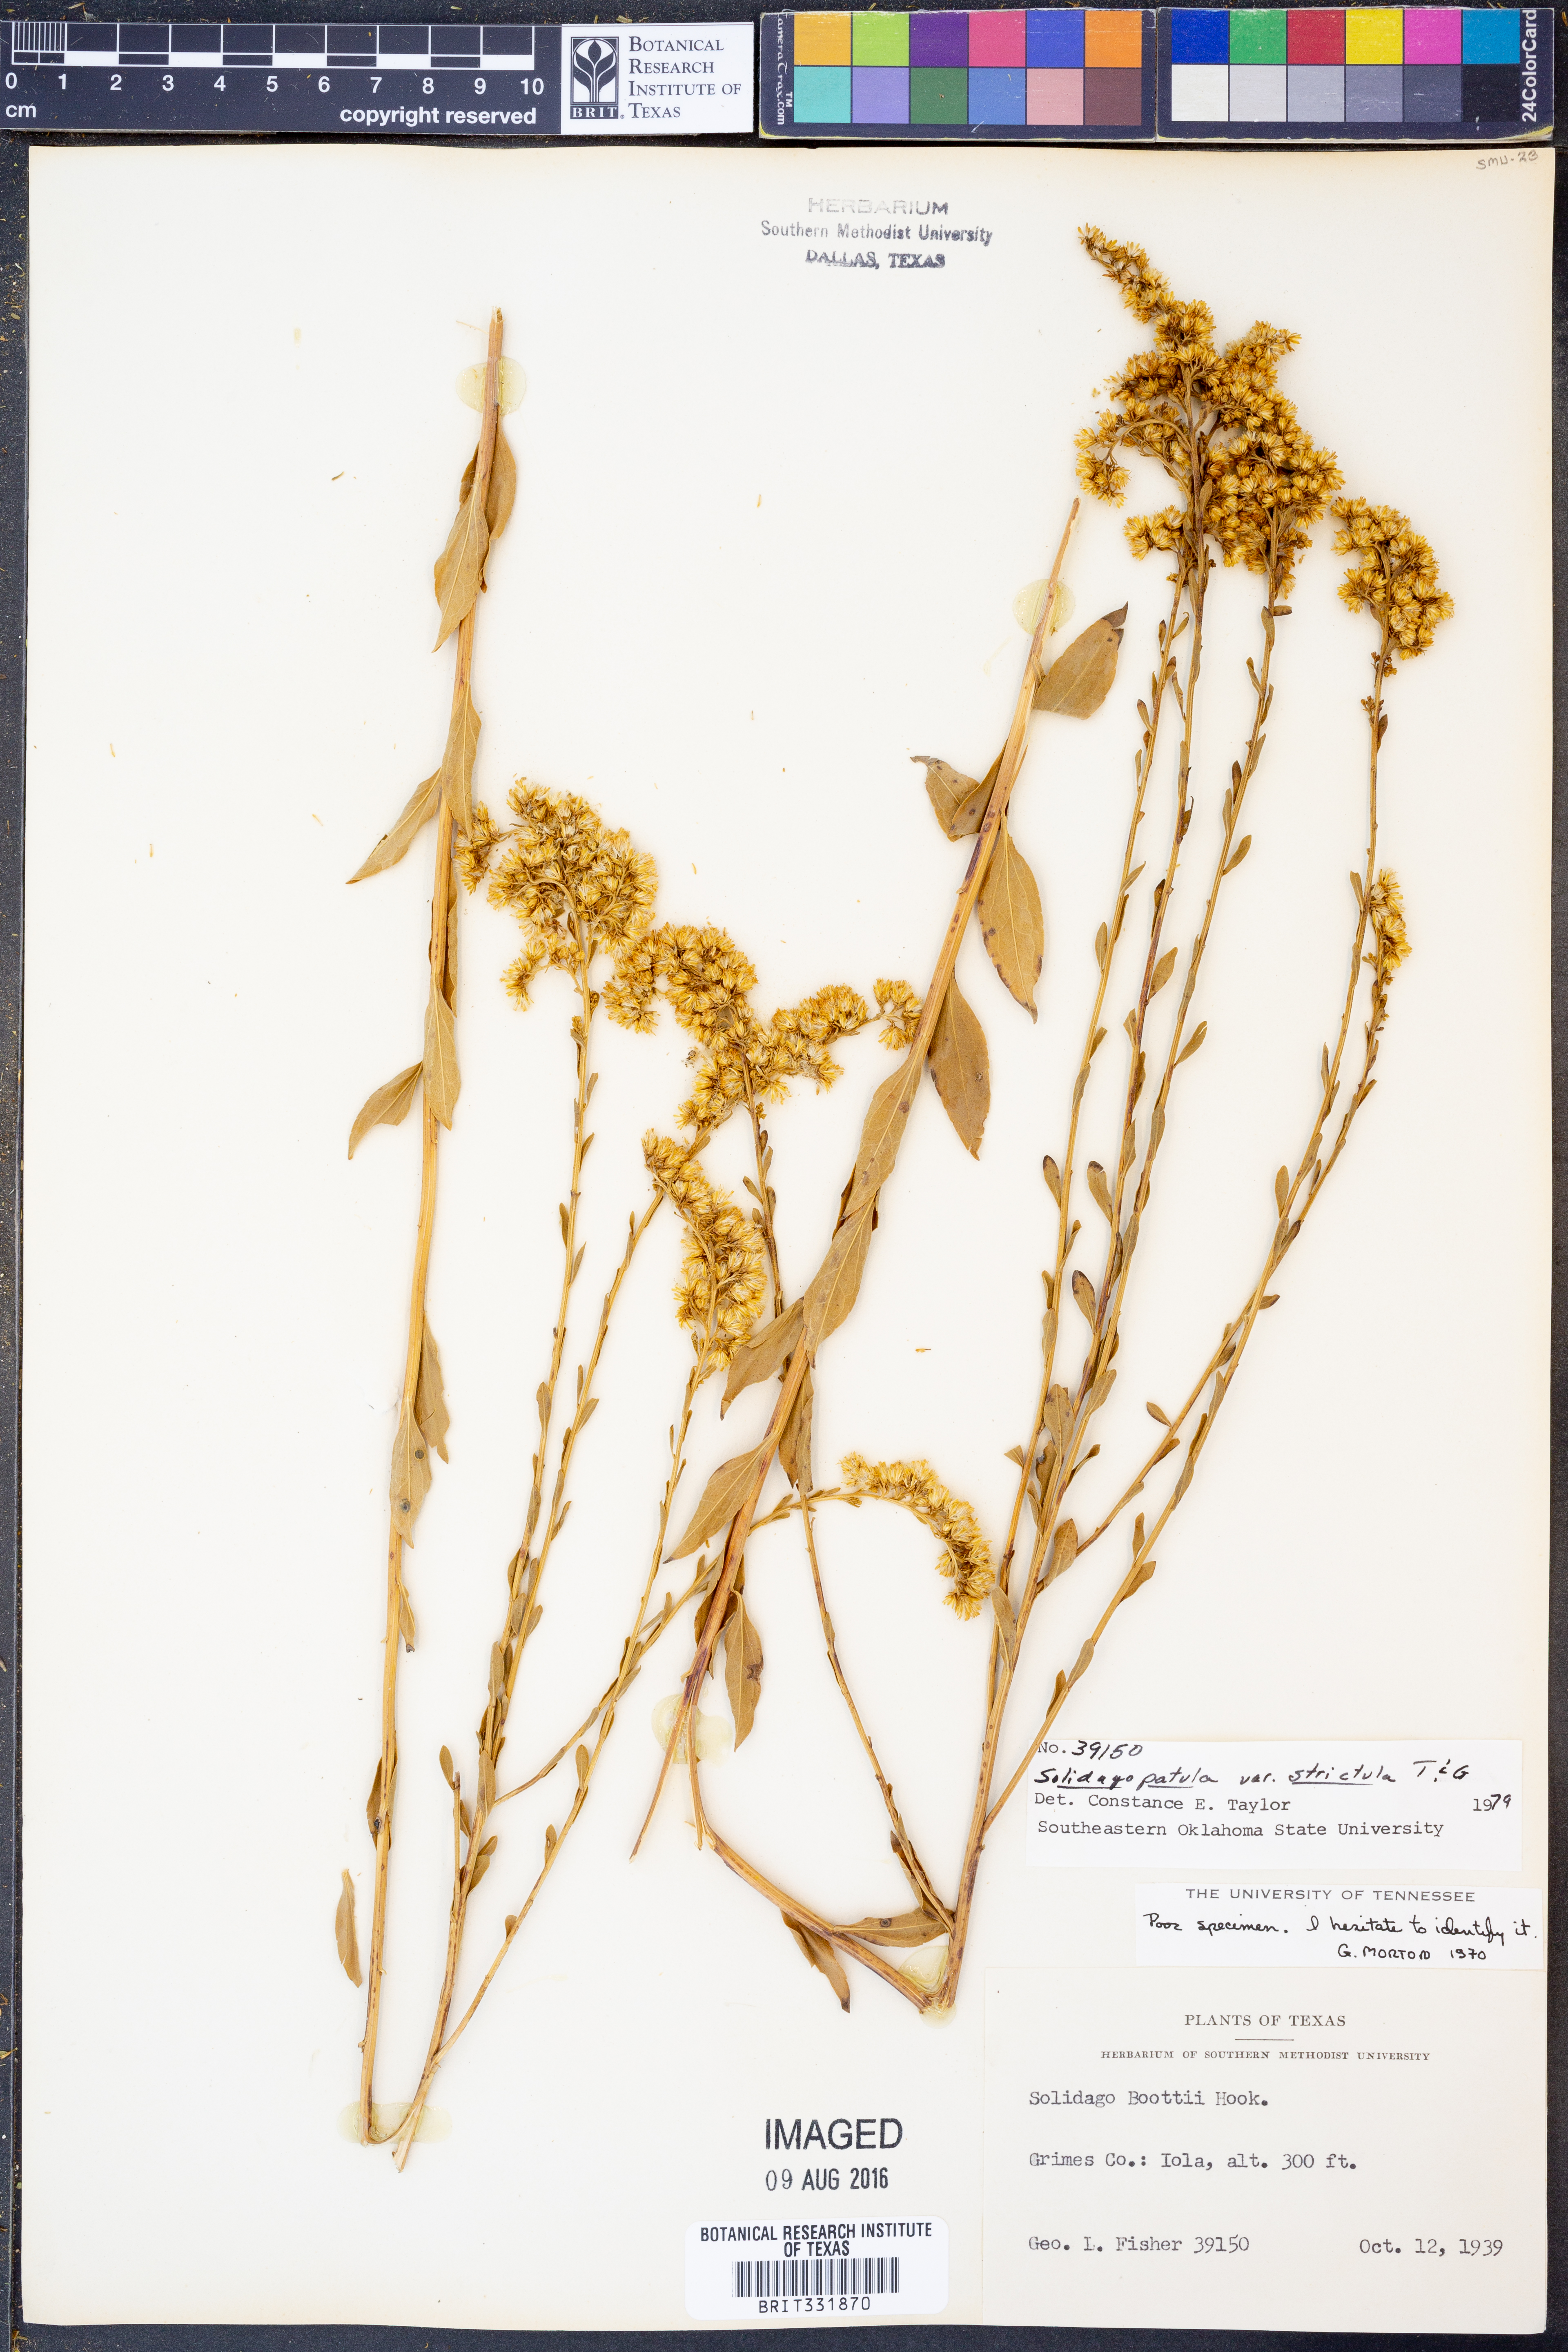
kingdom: Plantae
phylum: Tracheophyta
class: Magnoliopsida
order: Asterales
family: Asteraceae
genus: Solidago
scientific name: Solidago salicina
